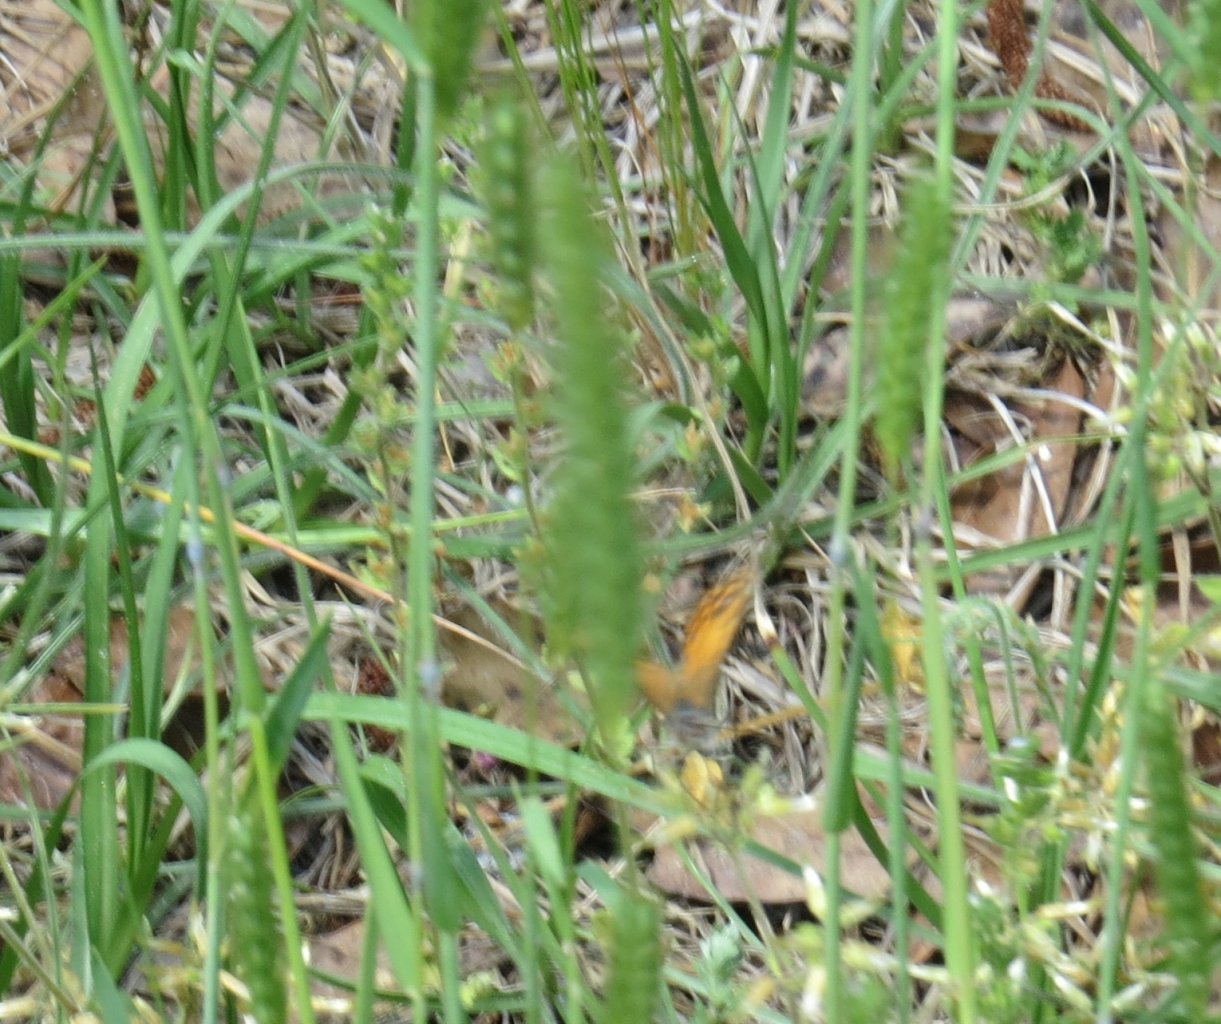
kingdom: Animalia
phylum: Arthropoda
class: Insecta
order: Lepidoptera
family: Nymphalidae
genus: Vanessa
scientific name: Vanessa virginiensis
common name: American Lady
